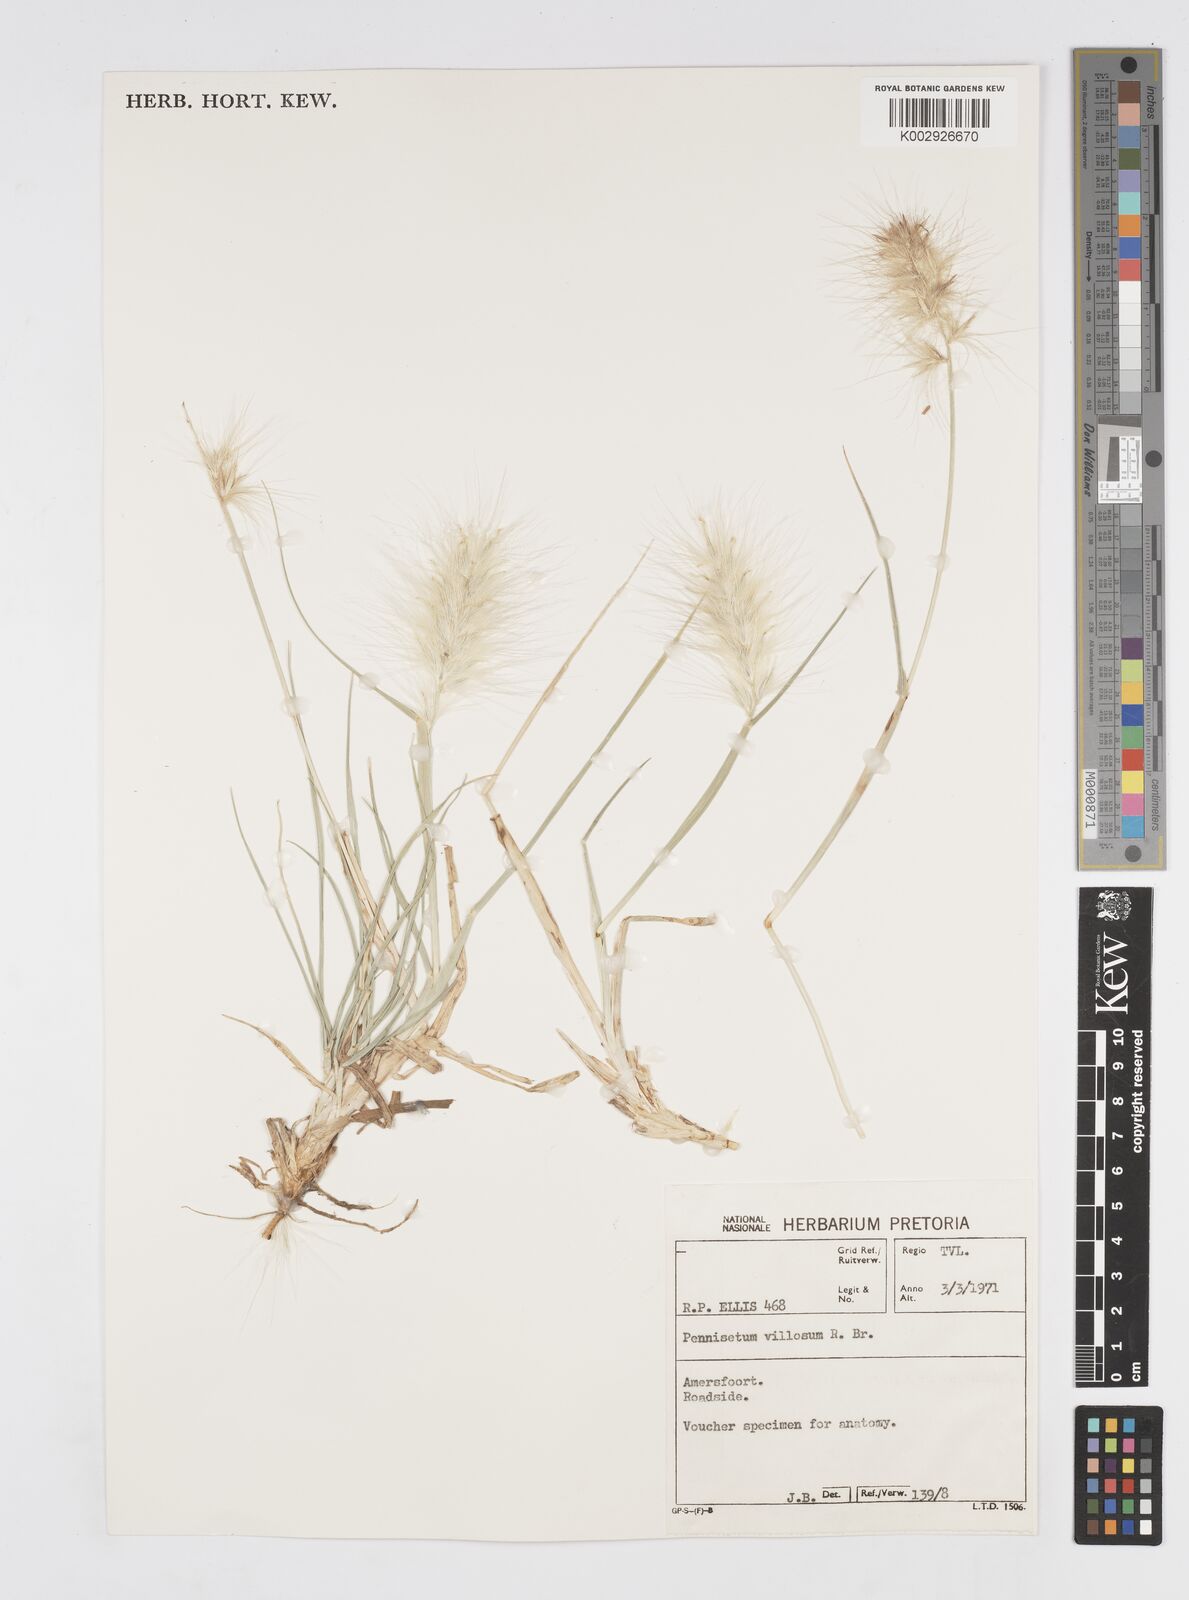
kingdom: Plantae
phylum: Tracheophyta
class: Liliopsida
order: Poales
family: Poaceae
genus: Cenchrus
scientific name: Cenchrus longisetus
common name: Feathertop
